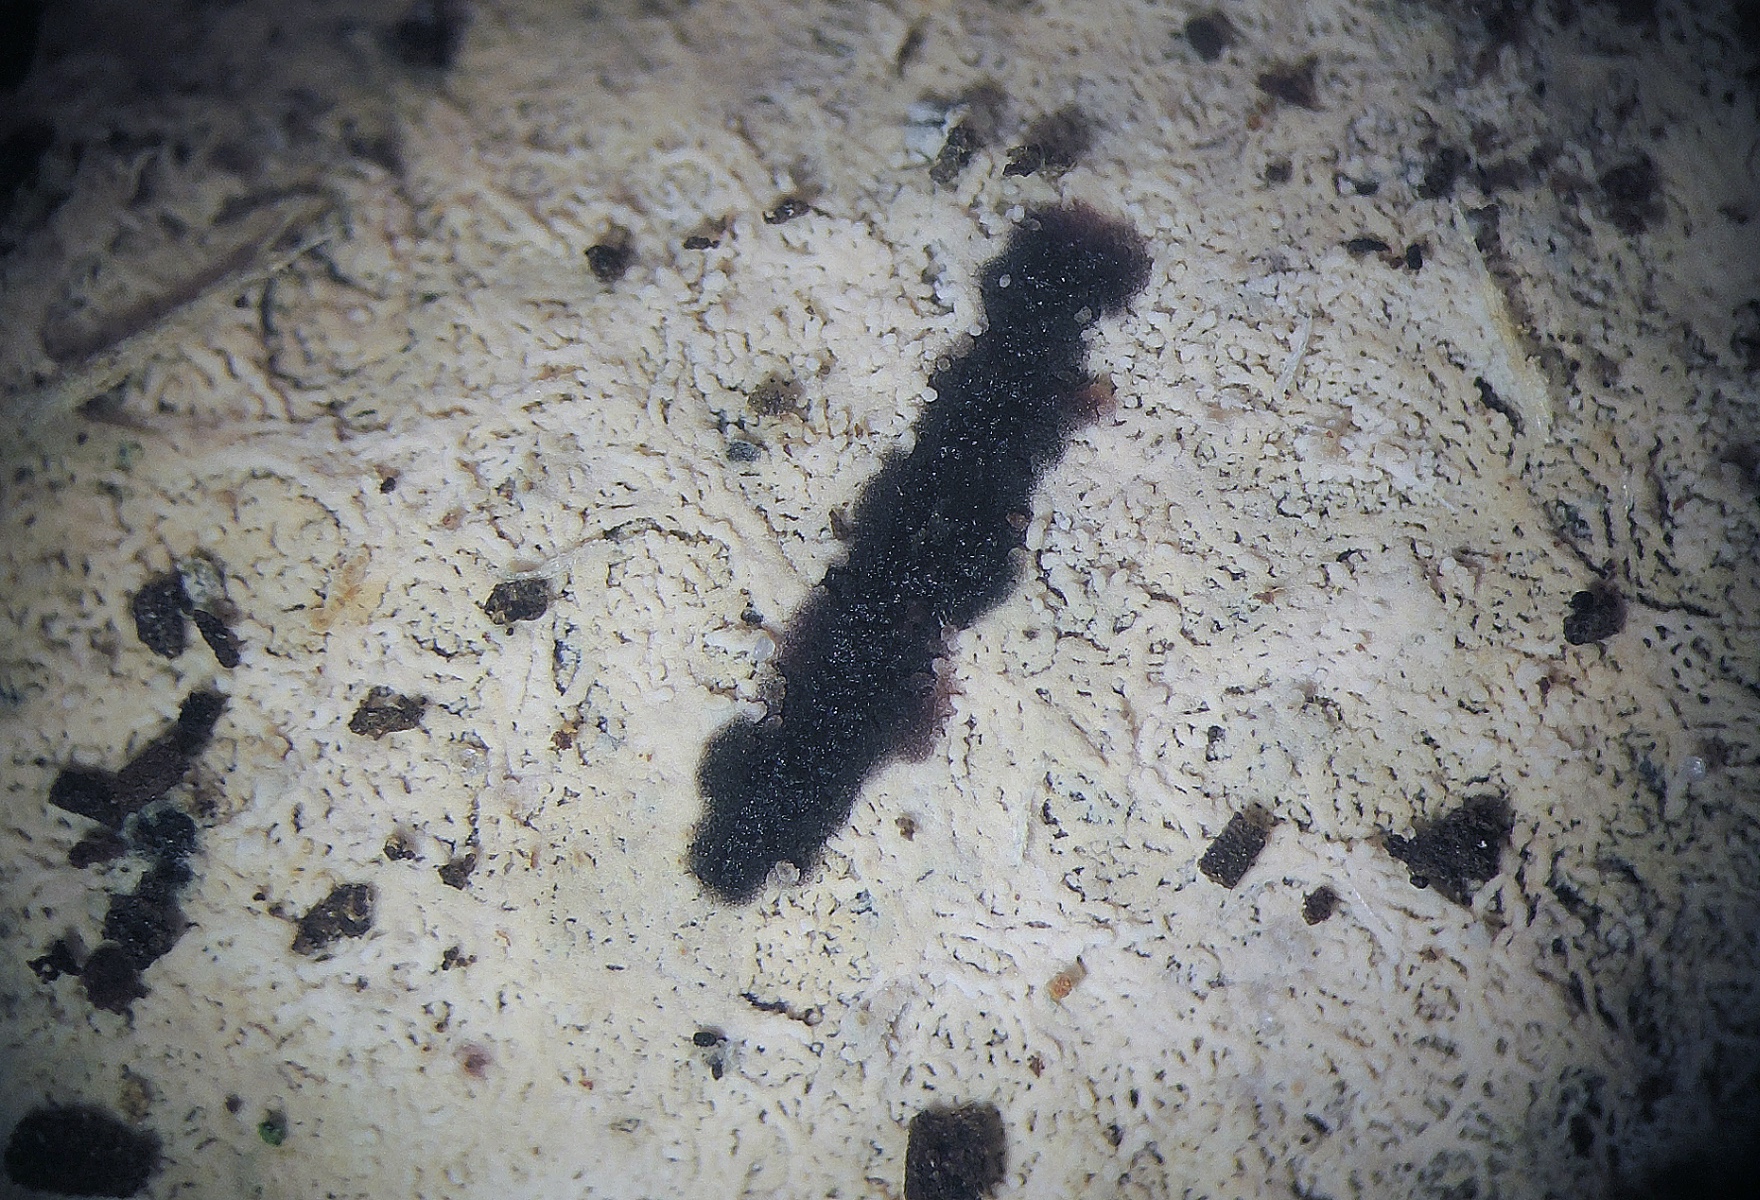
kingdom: Fungi
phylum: Basidiomycota
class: Agaricomycetes
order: Russulales
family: Xenasmataceae
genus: Xenasmatella
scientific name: Xenasmatella
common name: strenghinde
